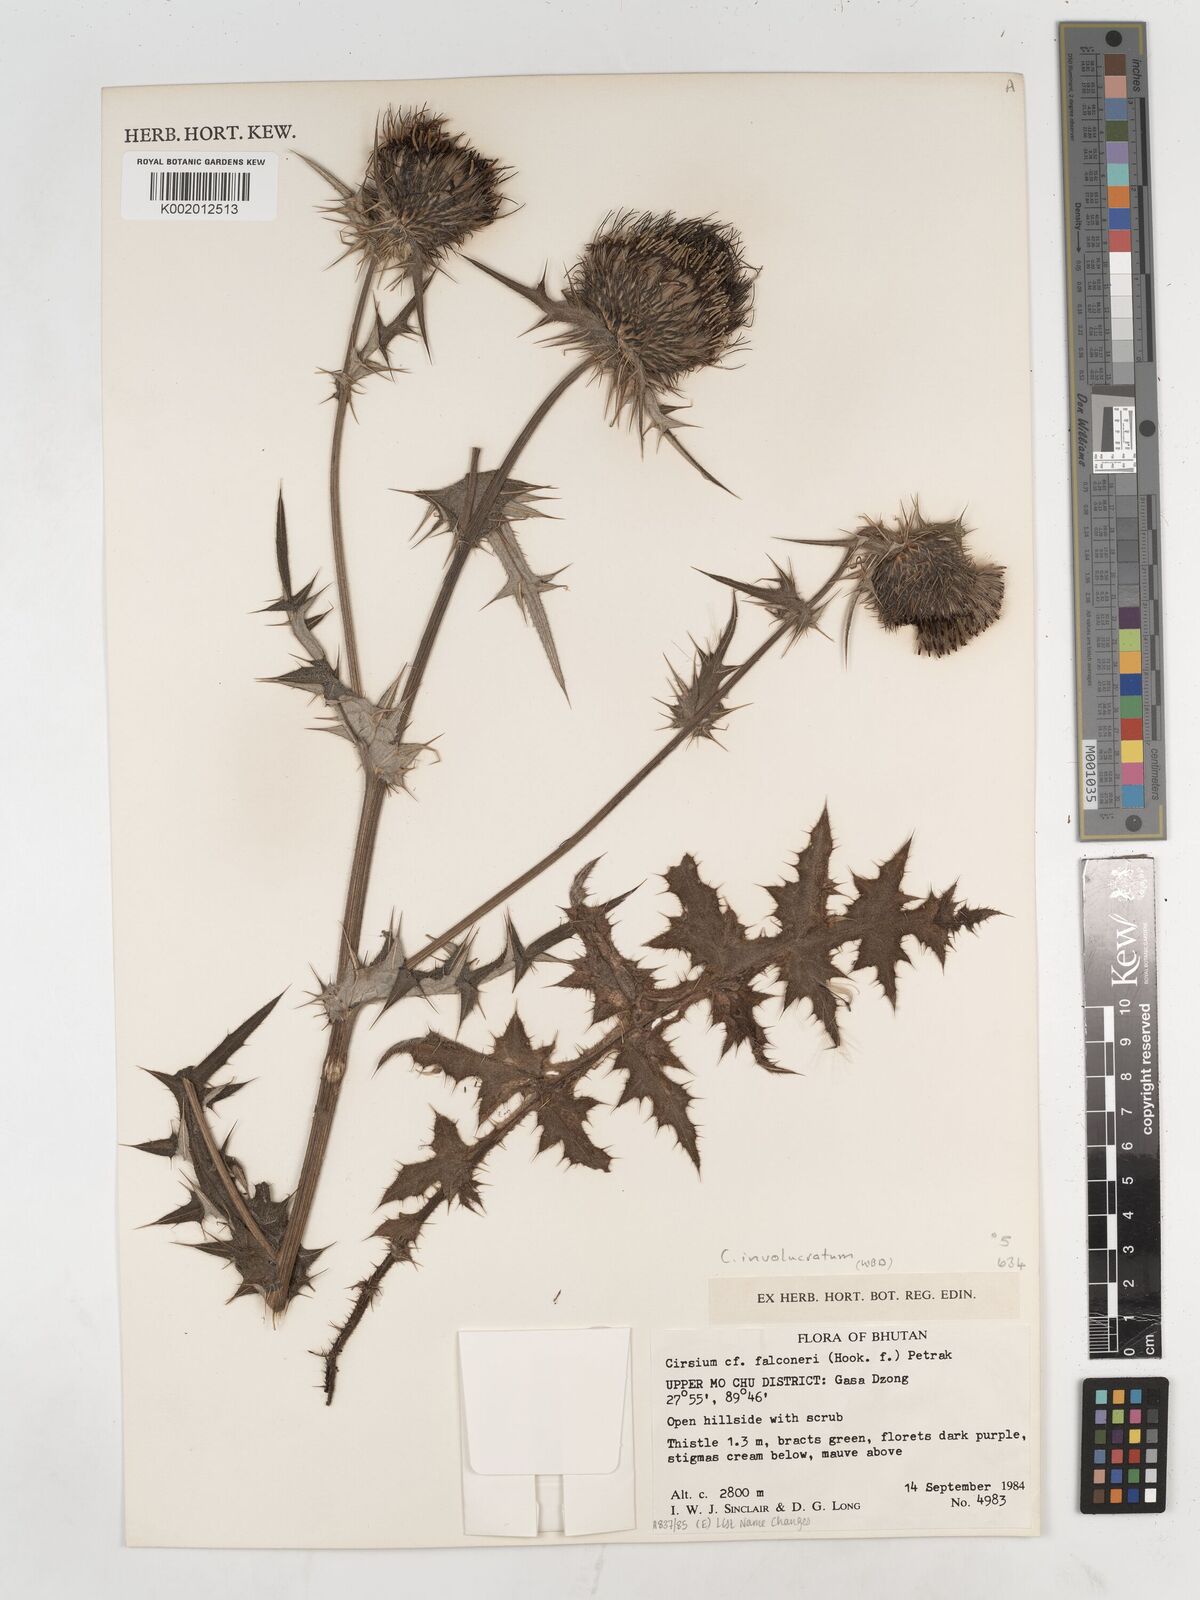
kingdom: Plantae
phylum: Tracheophyta
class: Magnoliopsida
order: Asterales
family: Asteraceae
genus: Cirsium
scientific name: Cirsium falconeri
